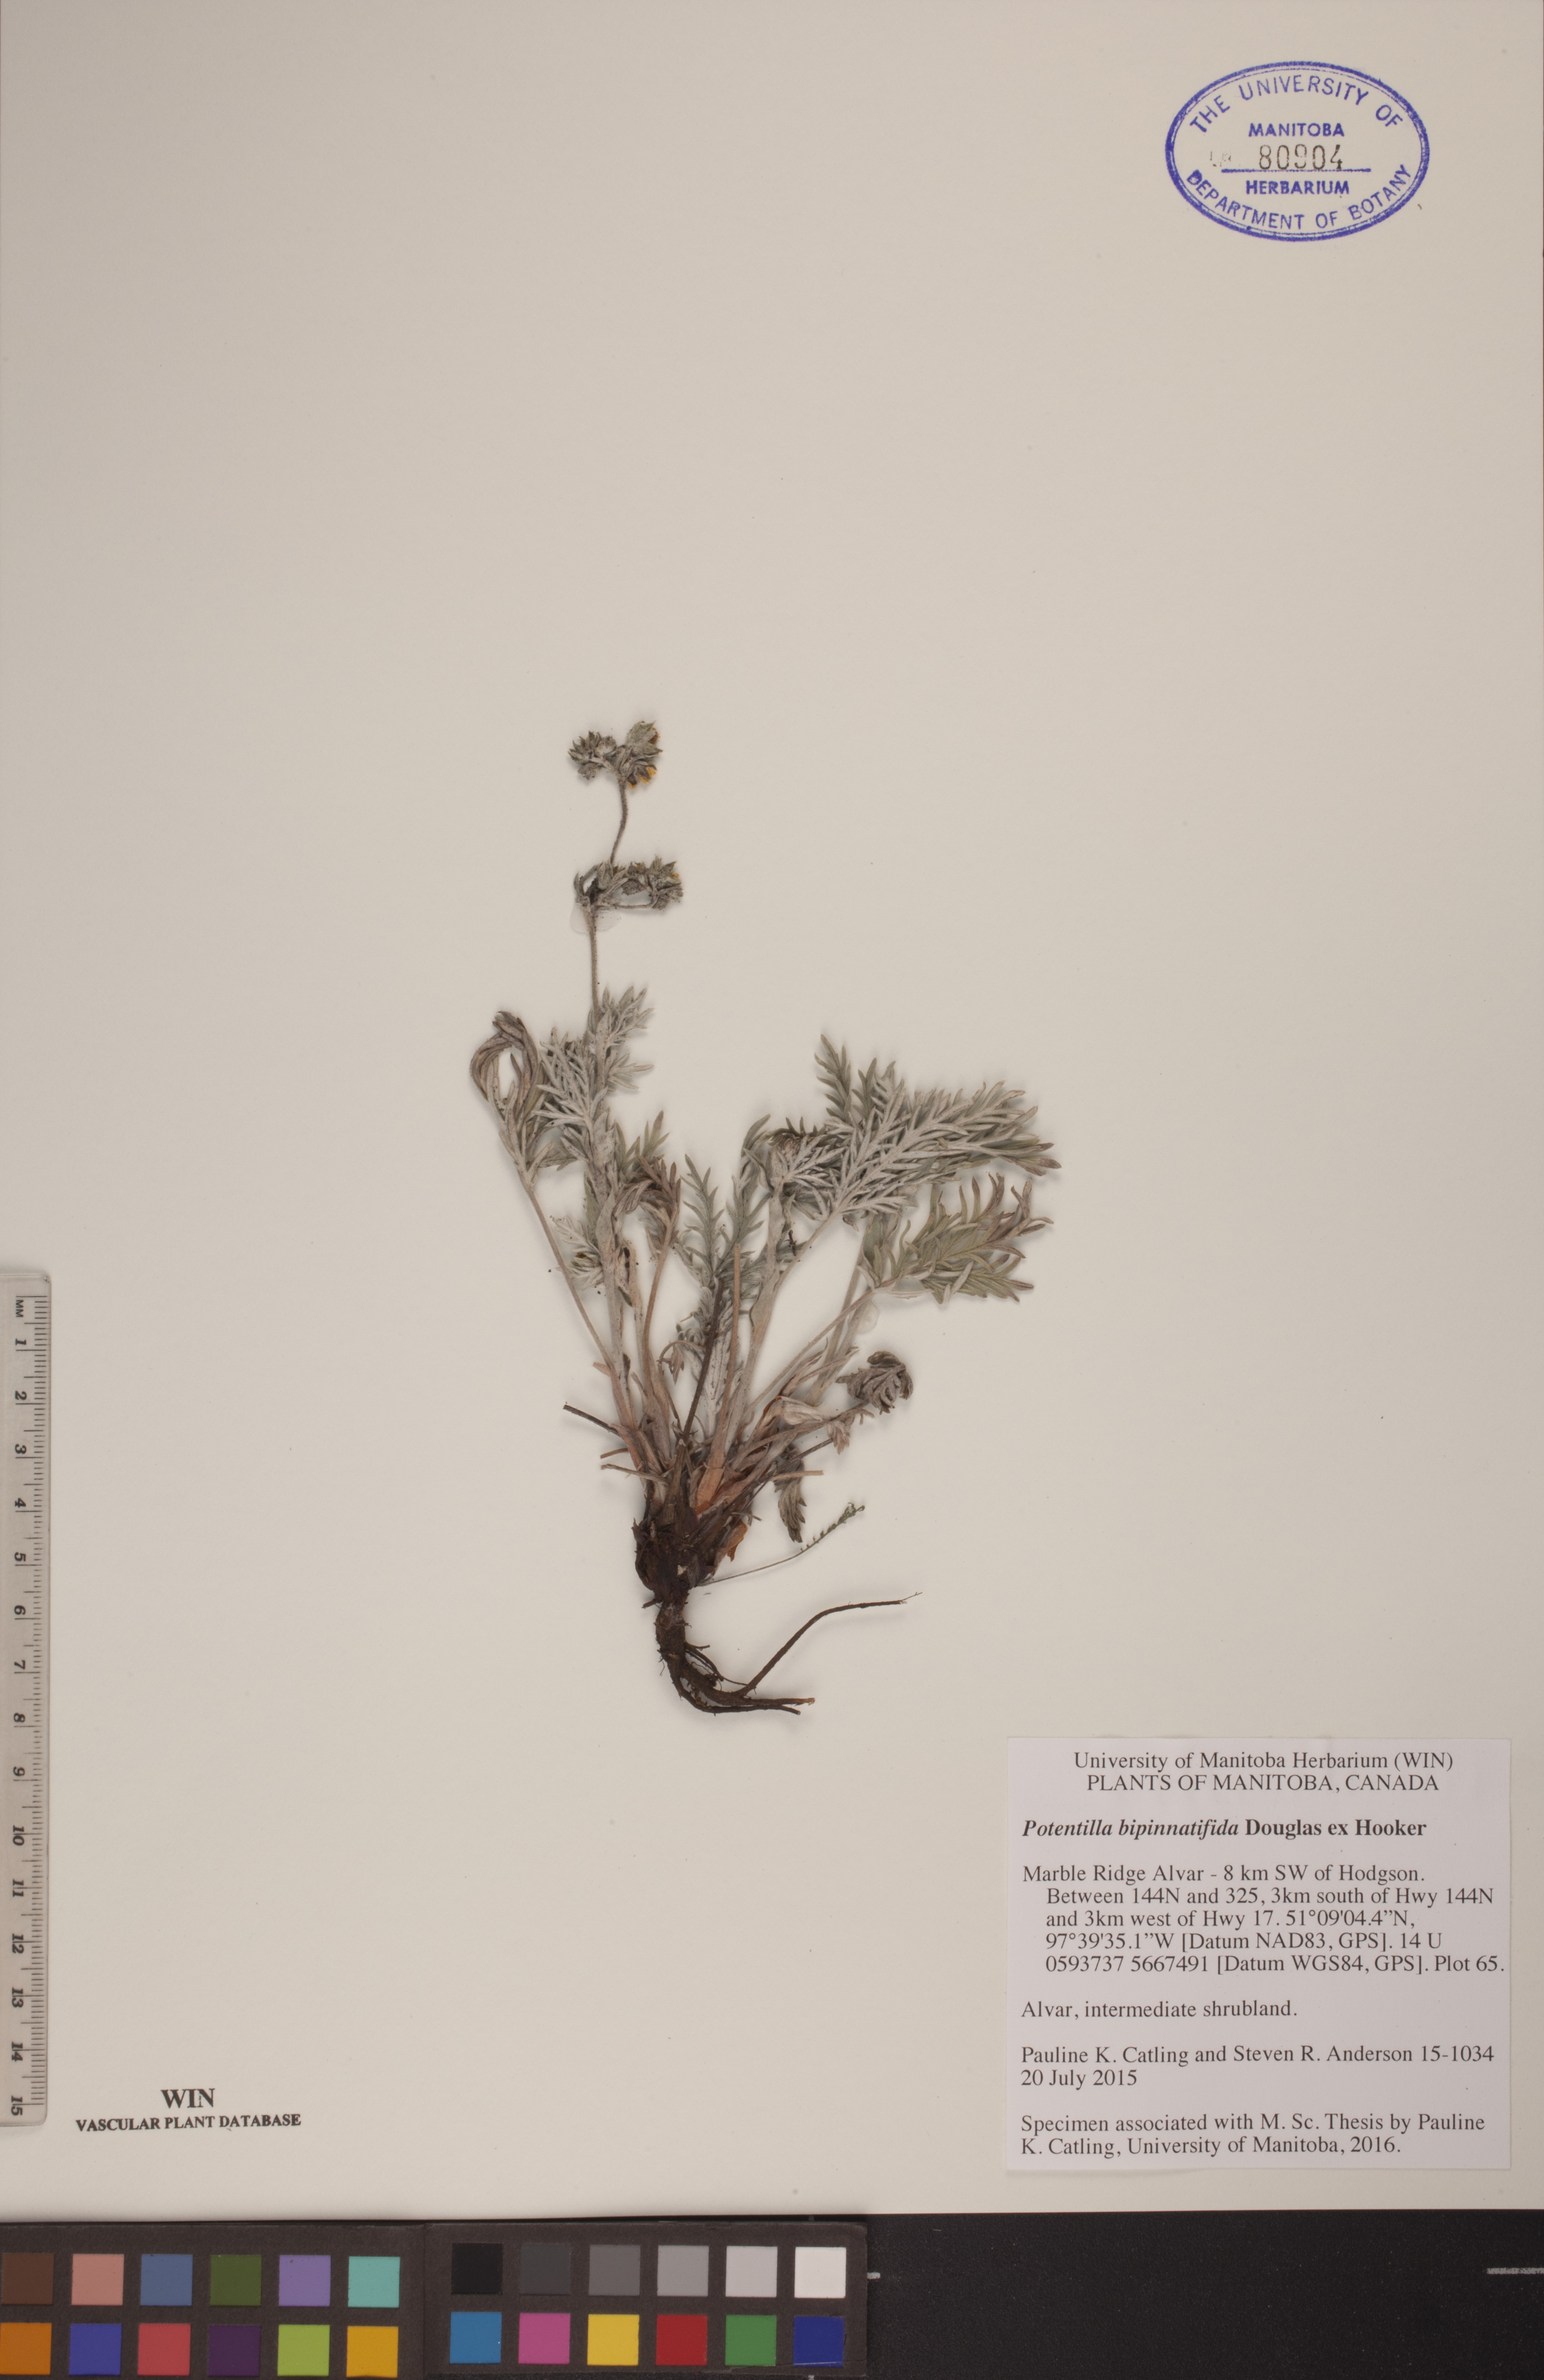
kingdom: Plantae
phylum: Tracheophyta
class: Magnoliopsida
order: Rosales
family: Rosaceae
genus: Potentilla
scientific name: Potentilla bipinnatifida
